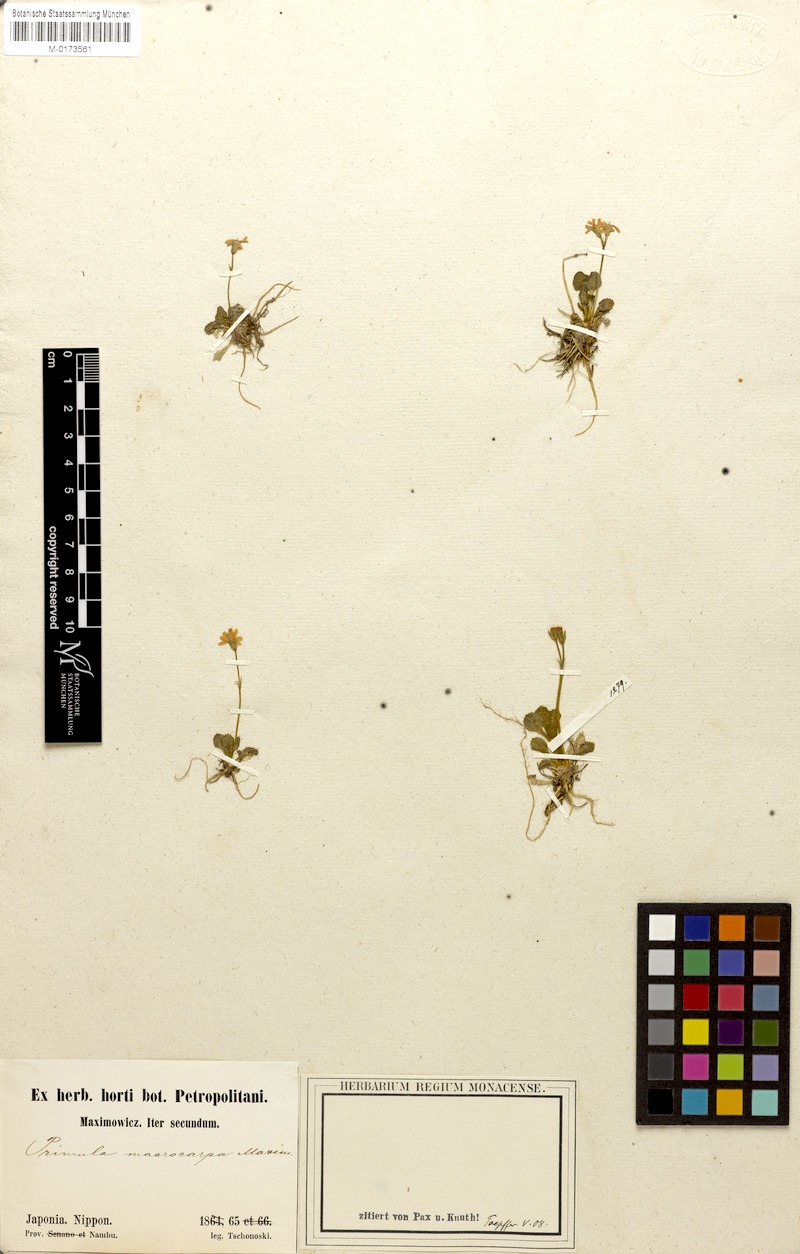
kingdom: Plantae
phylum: Tracheophyta
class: Magnoliopsida
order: Ericales
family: Primulaceae
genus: Primula
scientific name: Primula macrocarpa
